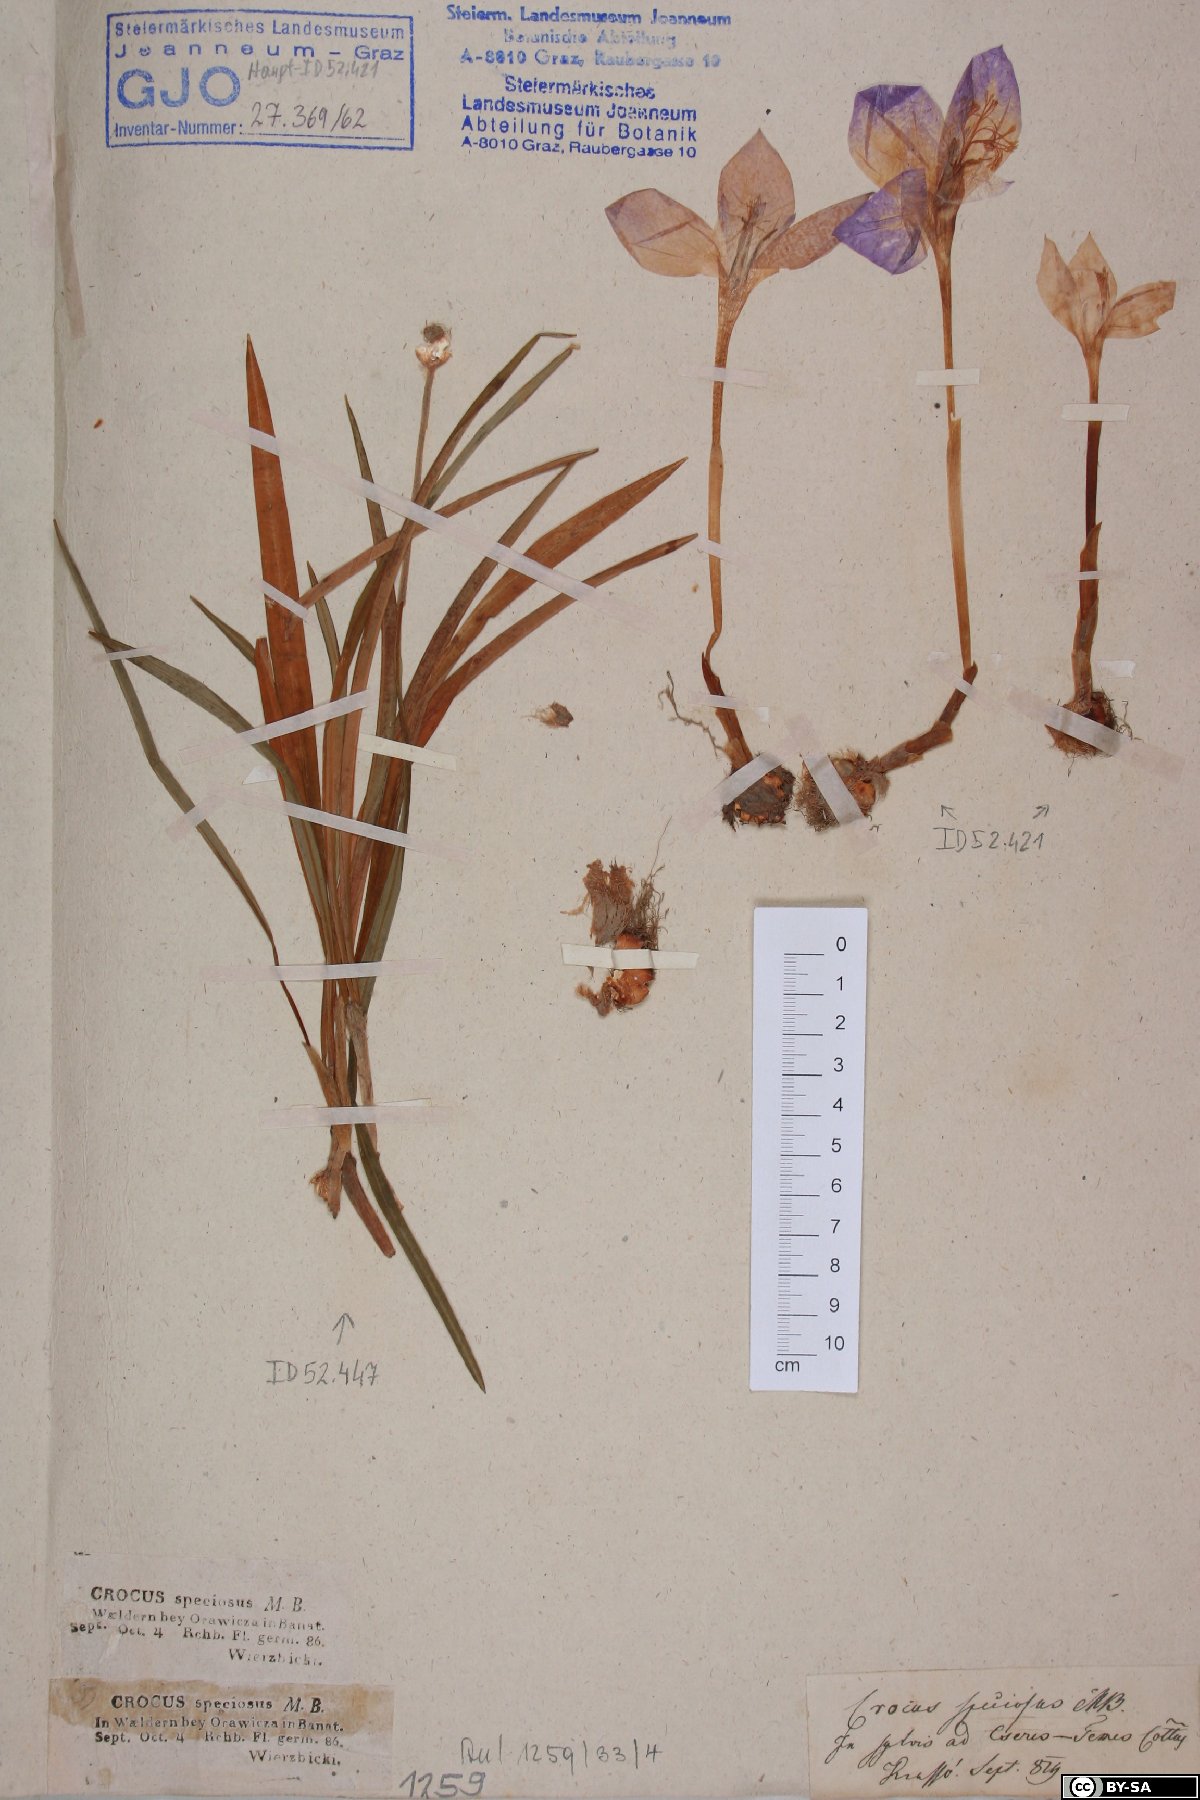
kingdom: Plantae
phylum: Tracheophyta
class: Liliopsida
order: Asparagales
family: Iridaceae
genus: Crocus
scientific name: Crocus speciosus
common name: Bieberstein's crocus
